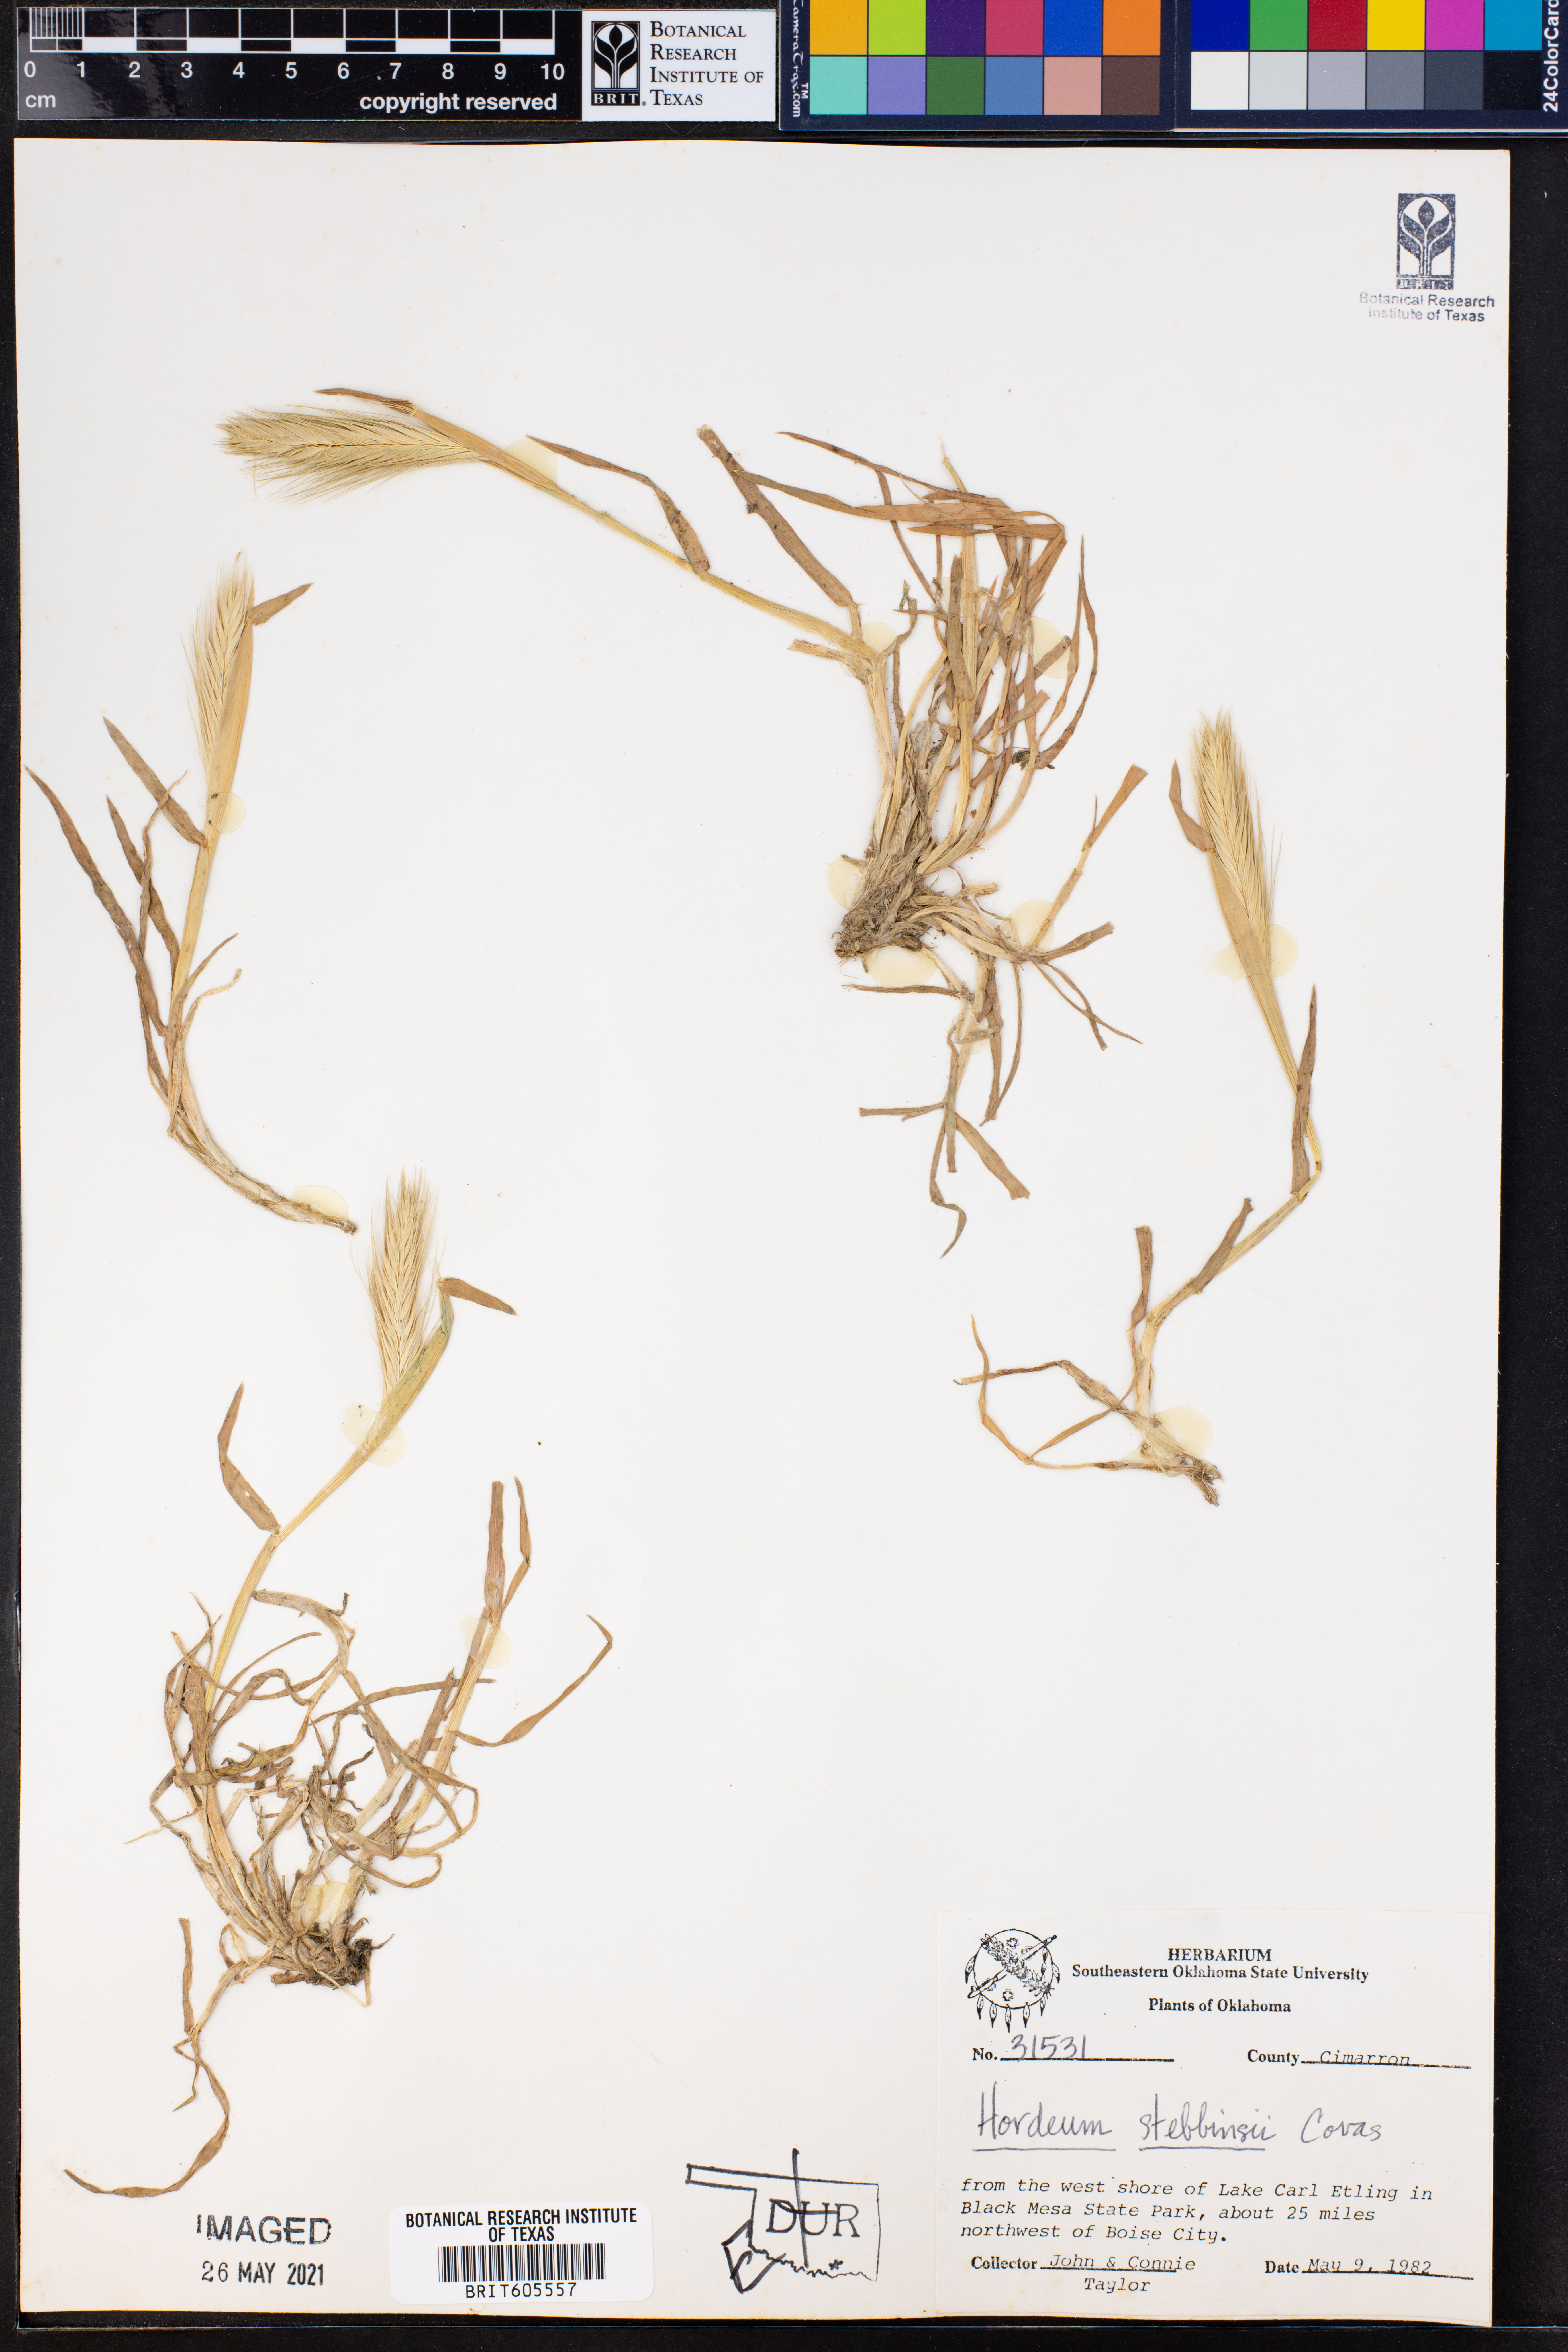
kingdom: Plantae
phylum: Tracheophyta
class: Liliopsida
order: Poales
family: Poaceae
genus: Hordeum
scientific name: Hordeum murinum
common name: Wall barley
